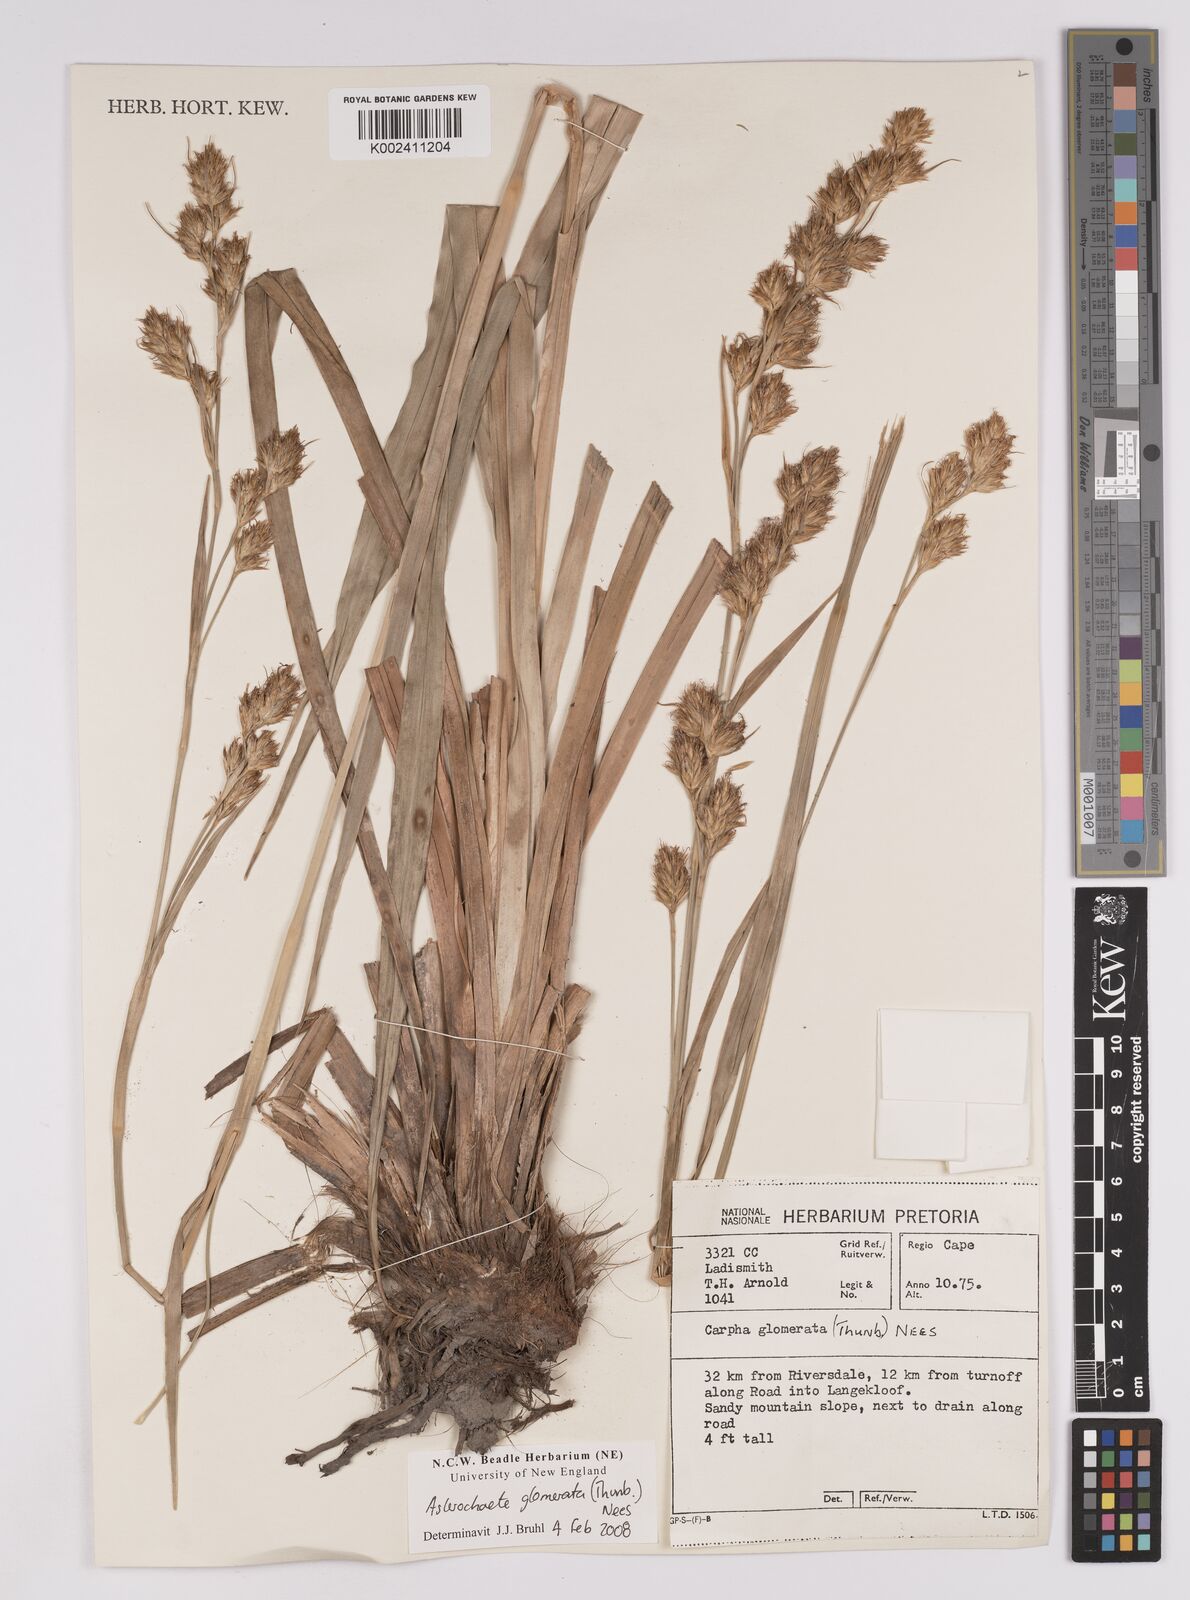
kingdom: Plantae
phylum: Tracheophyta
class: Liliopsida
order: Poales
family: Cyperaceae
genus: Carpha
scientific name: Carpha
